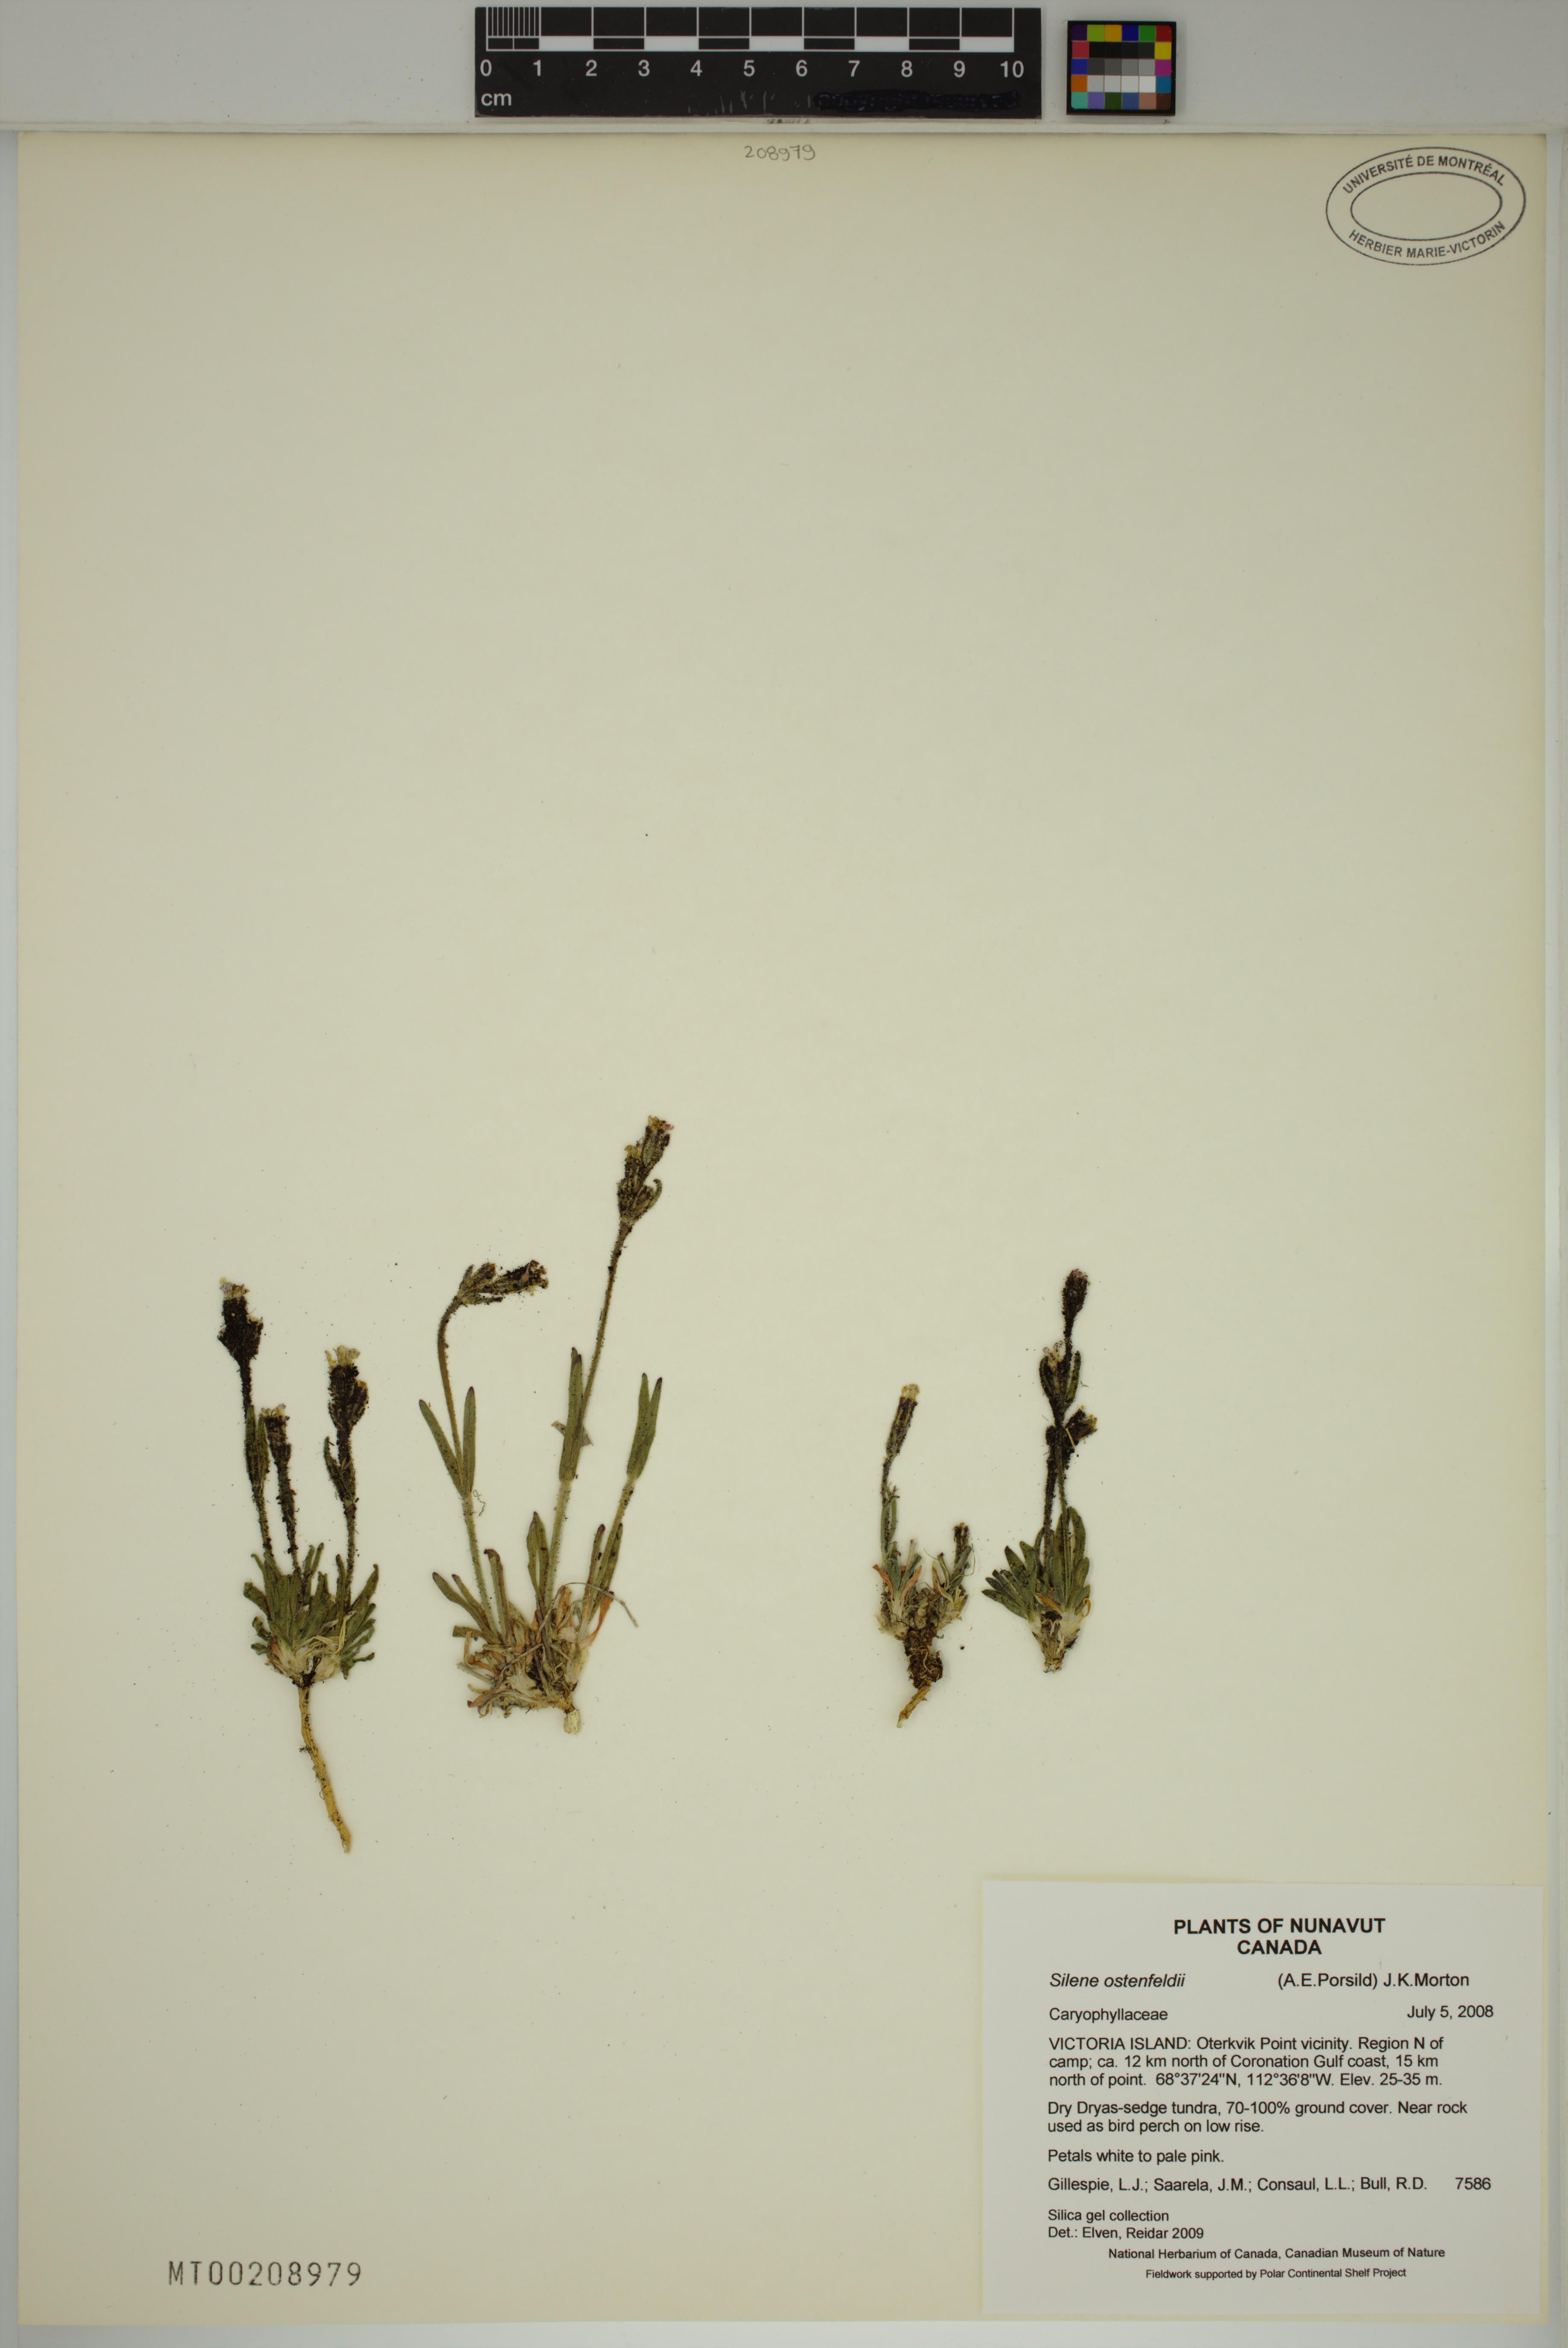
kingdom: Plantae
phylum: Tracheophyta
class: Magnoliopsida
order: Caryophyllales
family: Caryophyllaceae
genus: Silene
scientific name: Silene taimyrensis
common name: Taimyr campion
